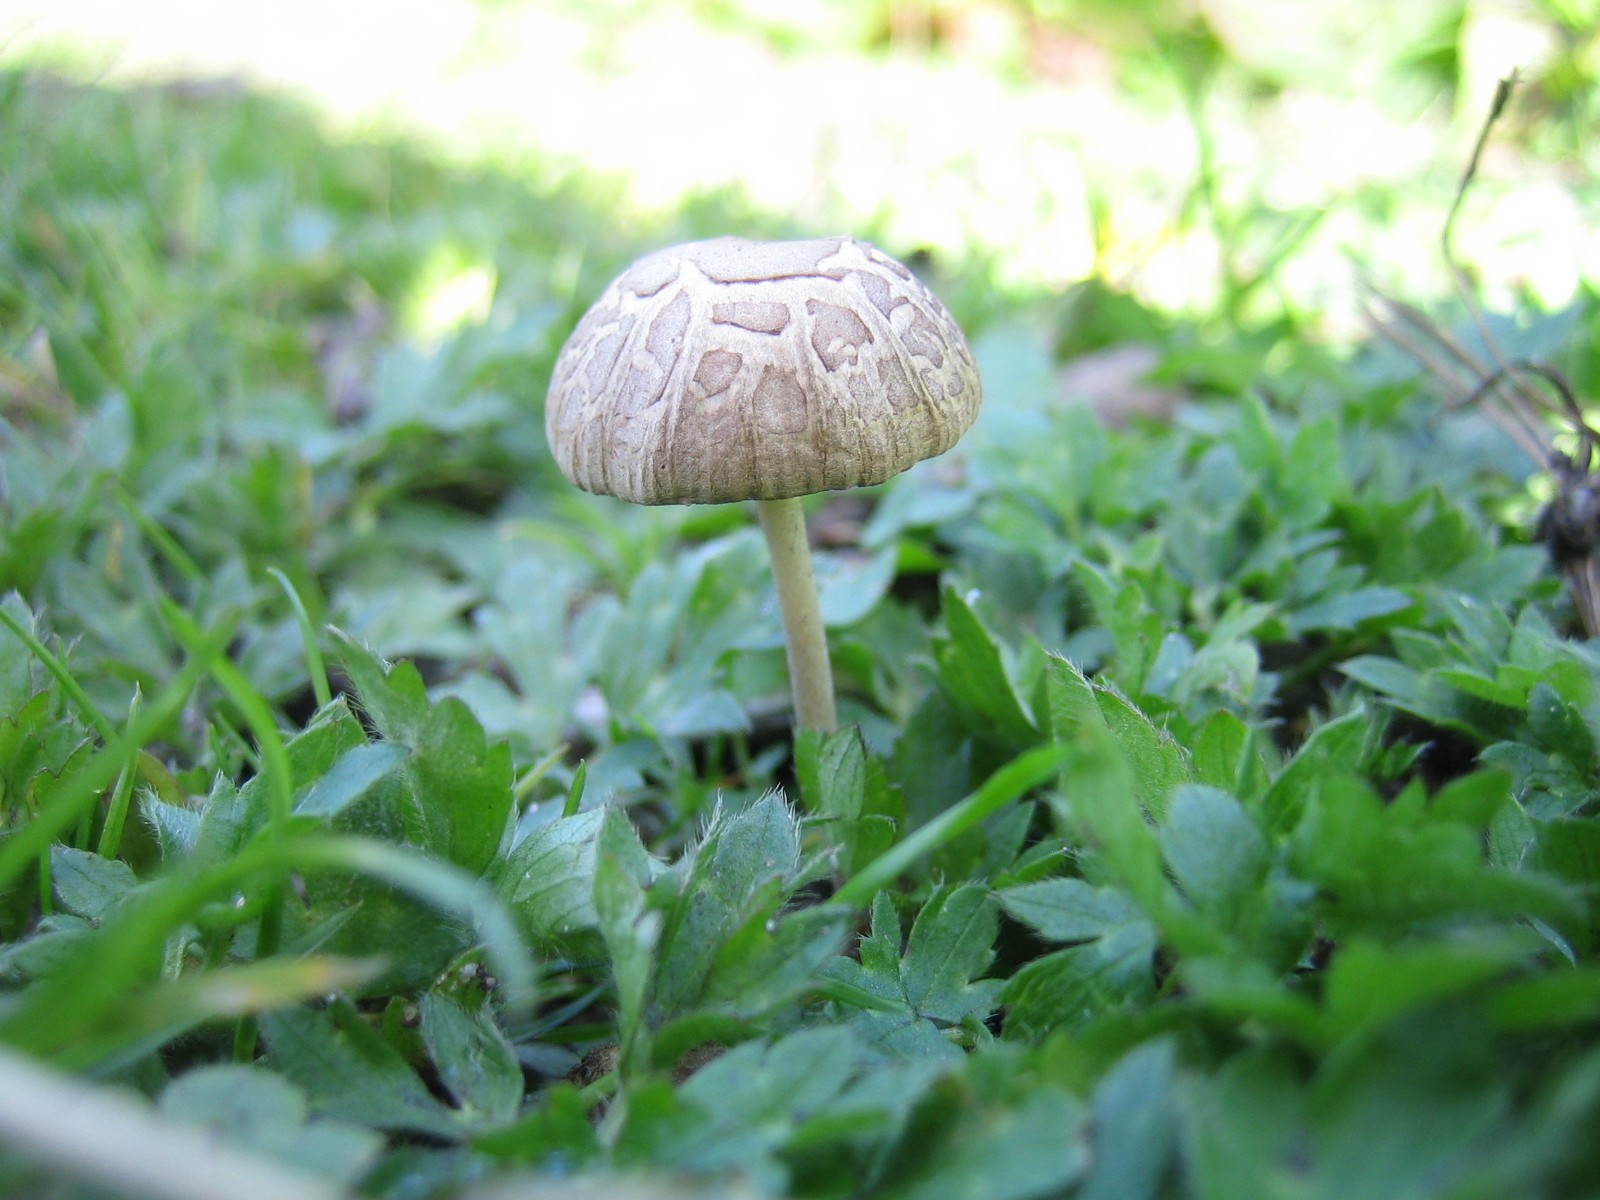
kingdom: Fungi
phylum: Basidiomycota
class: Agaricomycetes
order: Agaricales
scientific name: Agaricales
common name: champignonordenen
